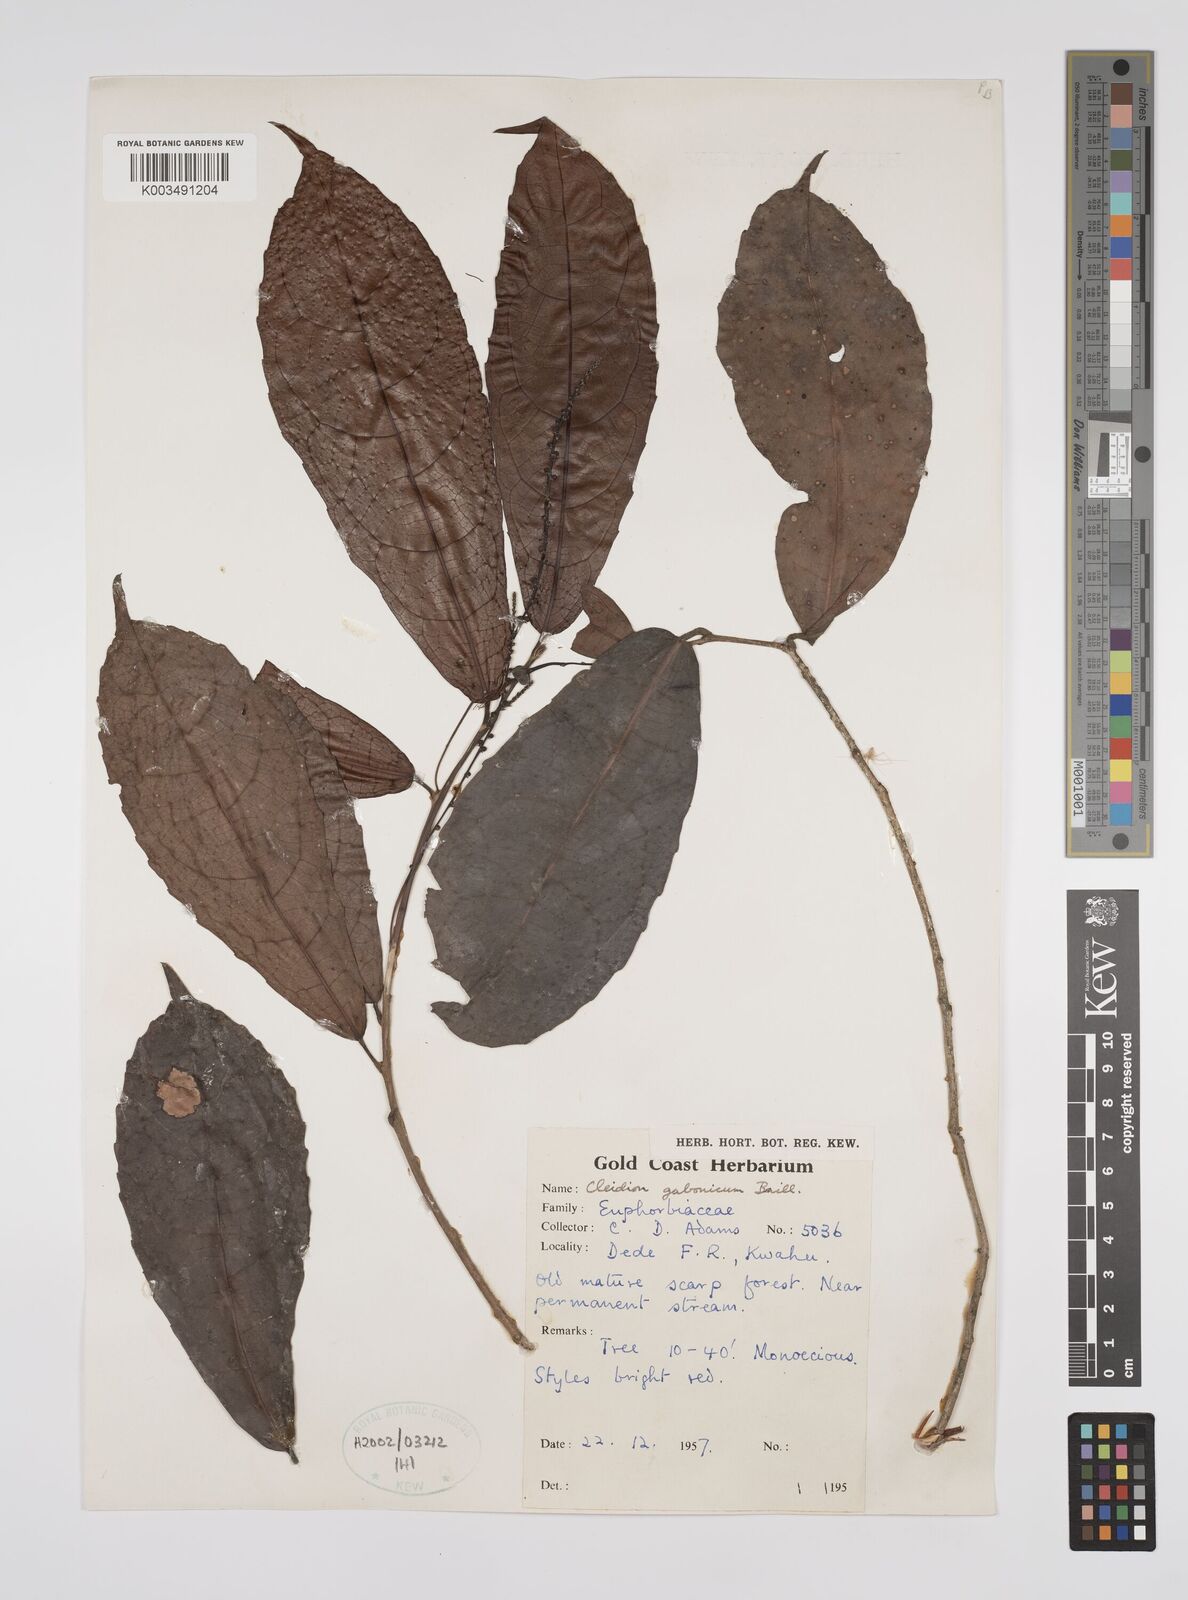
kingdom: Plantae
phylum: Tracheophyta
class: Magnoliopsida
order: Malpighiales
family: Euphorbiaceae
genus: Cleidion
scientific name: Cleidion gabonicum
